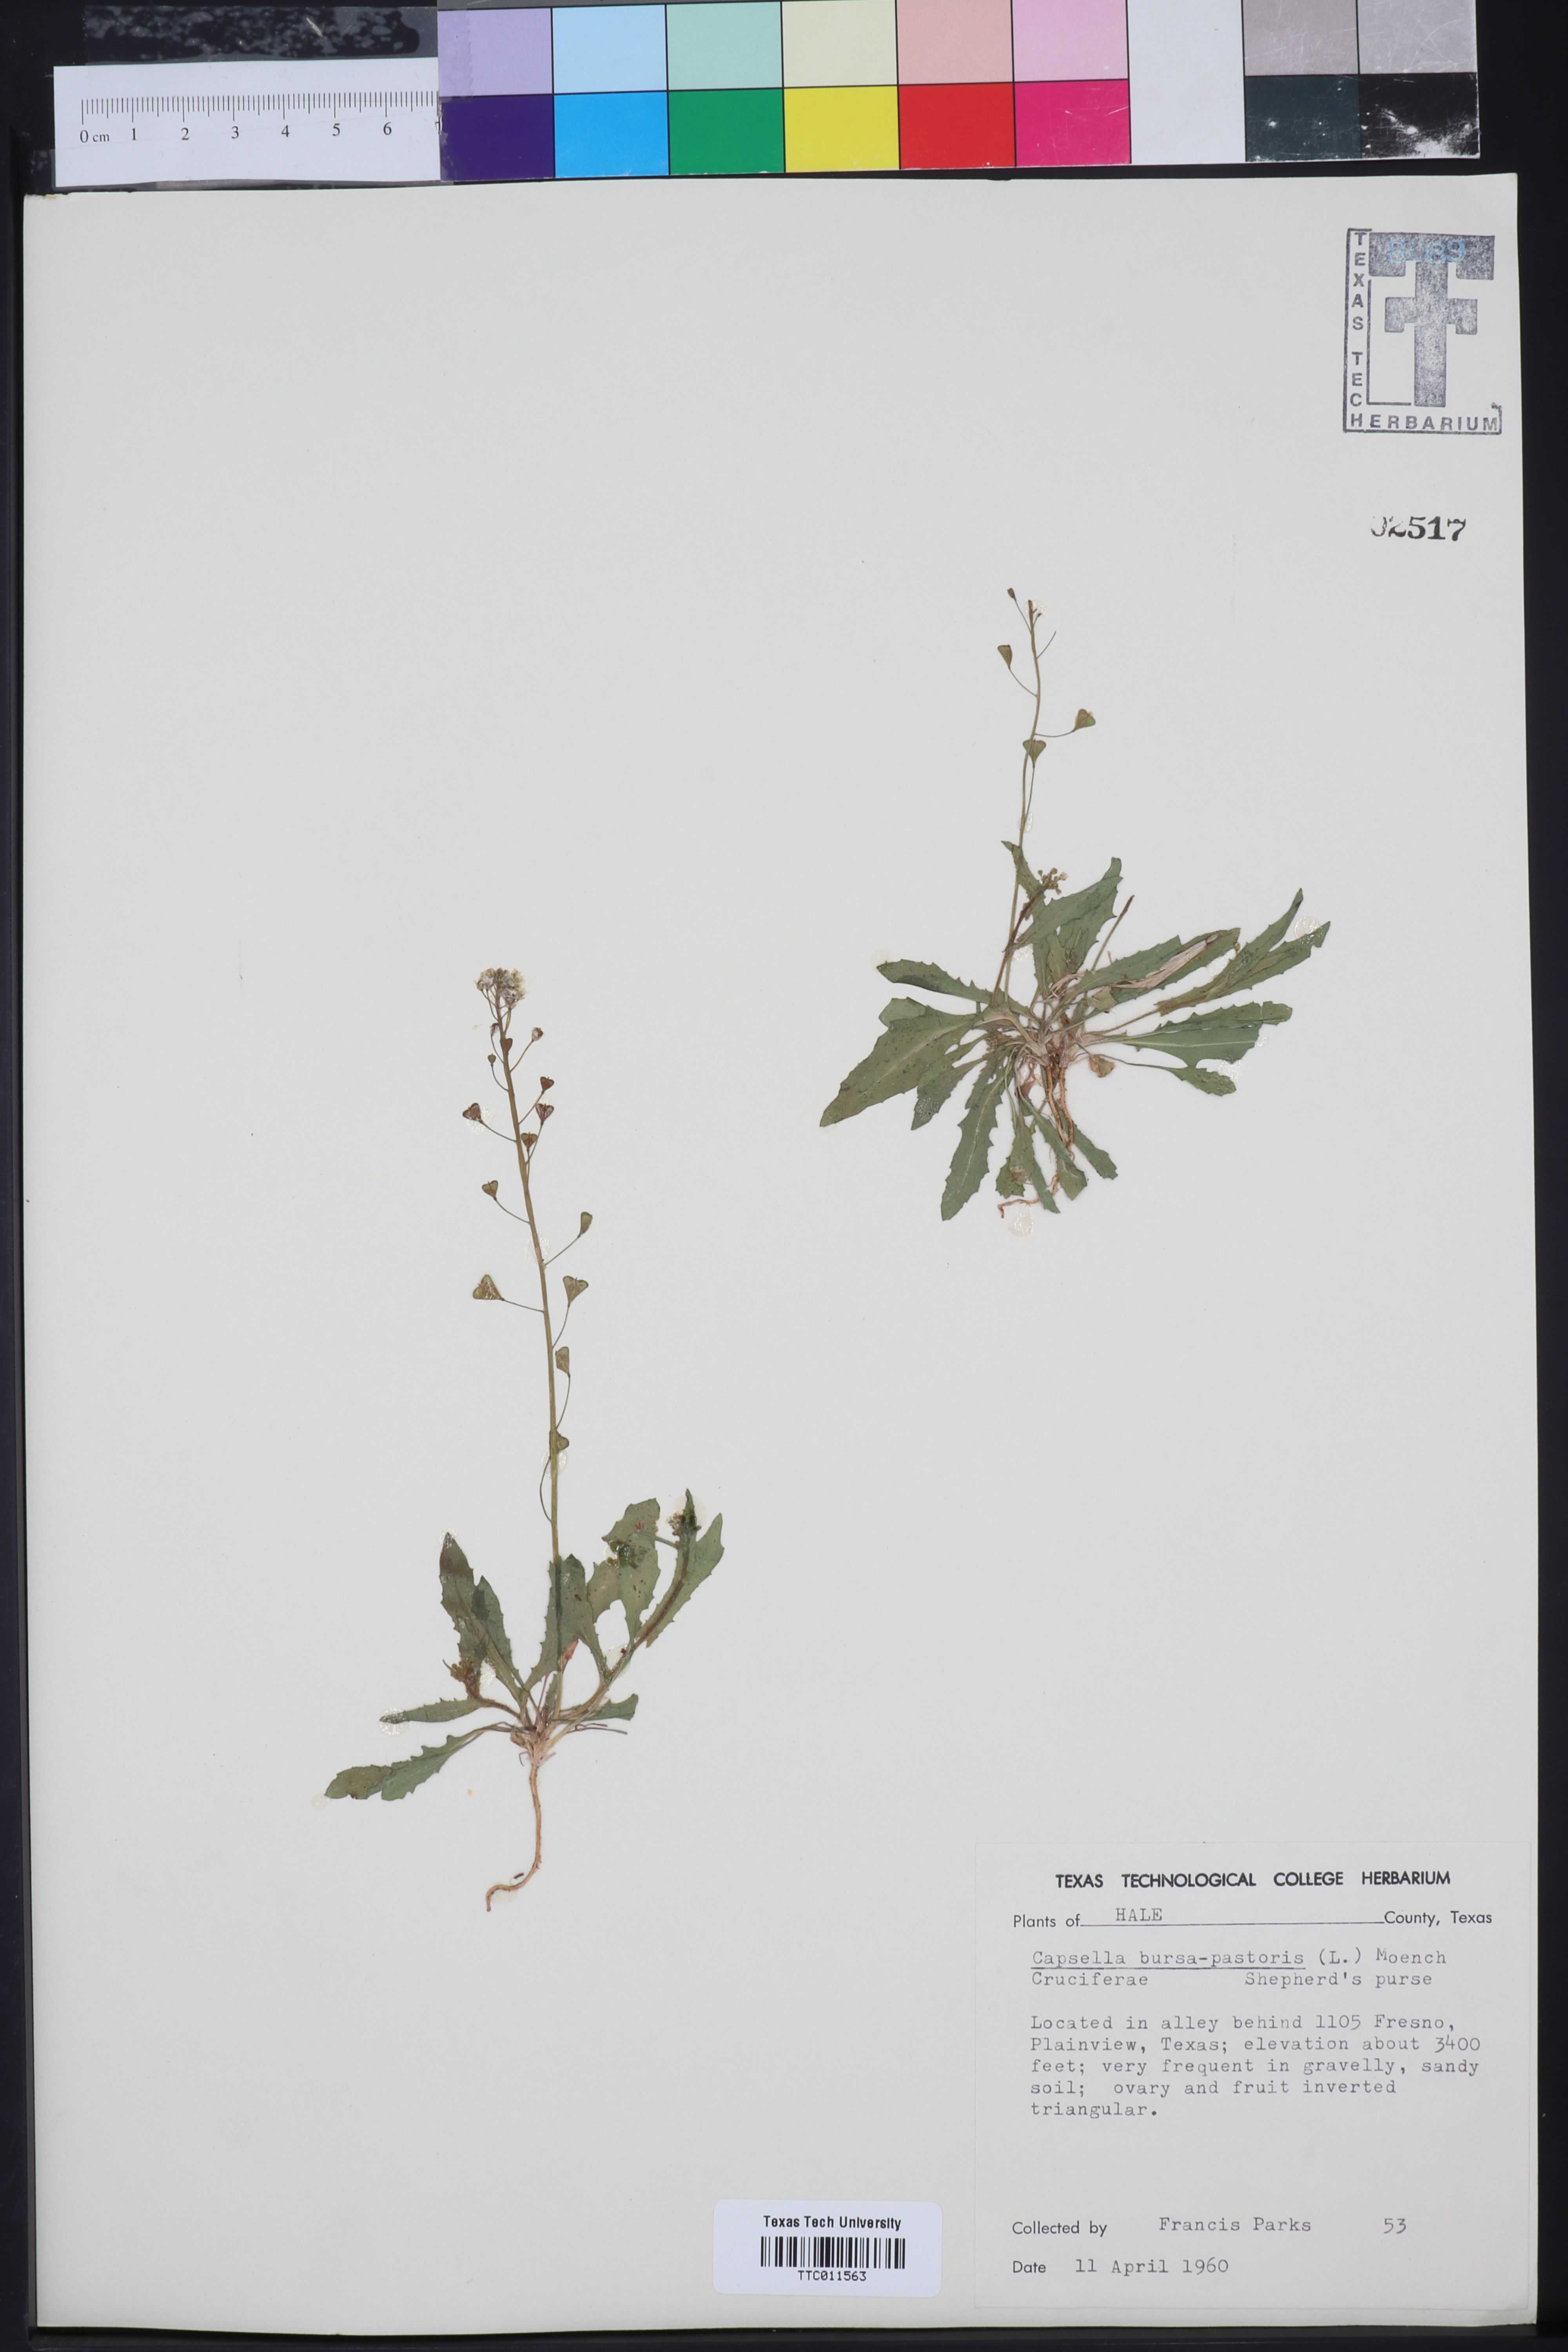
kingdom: Plantae
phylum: Tracheophyta
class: Magnoliopsida
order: Brassicales
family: Brassicaceae
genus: Capsella
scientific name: Capsella bursa-pastoris
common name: Shepherd's purse
